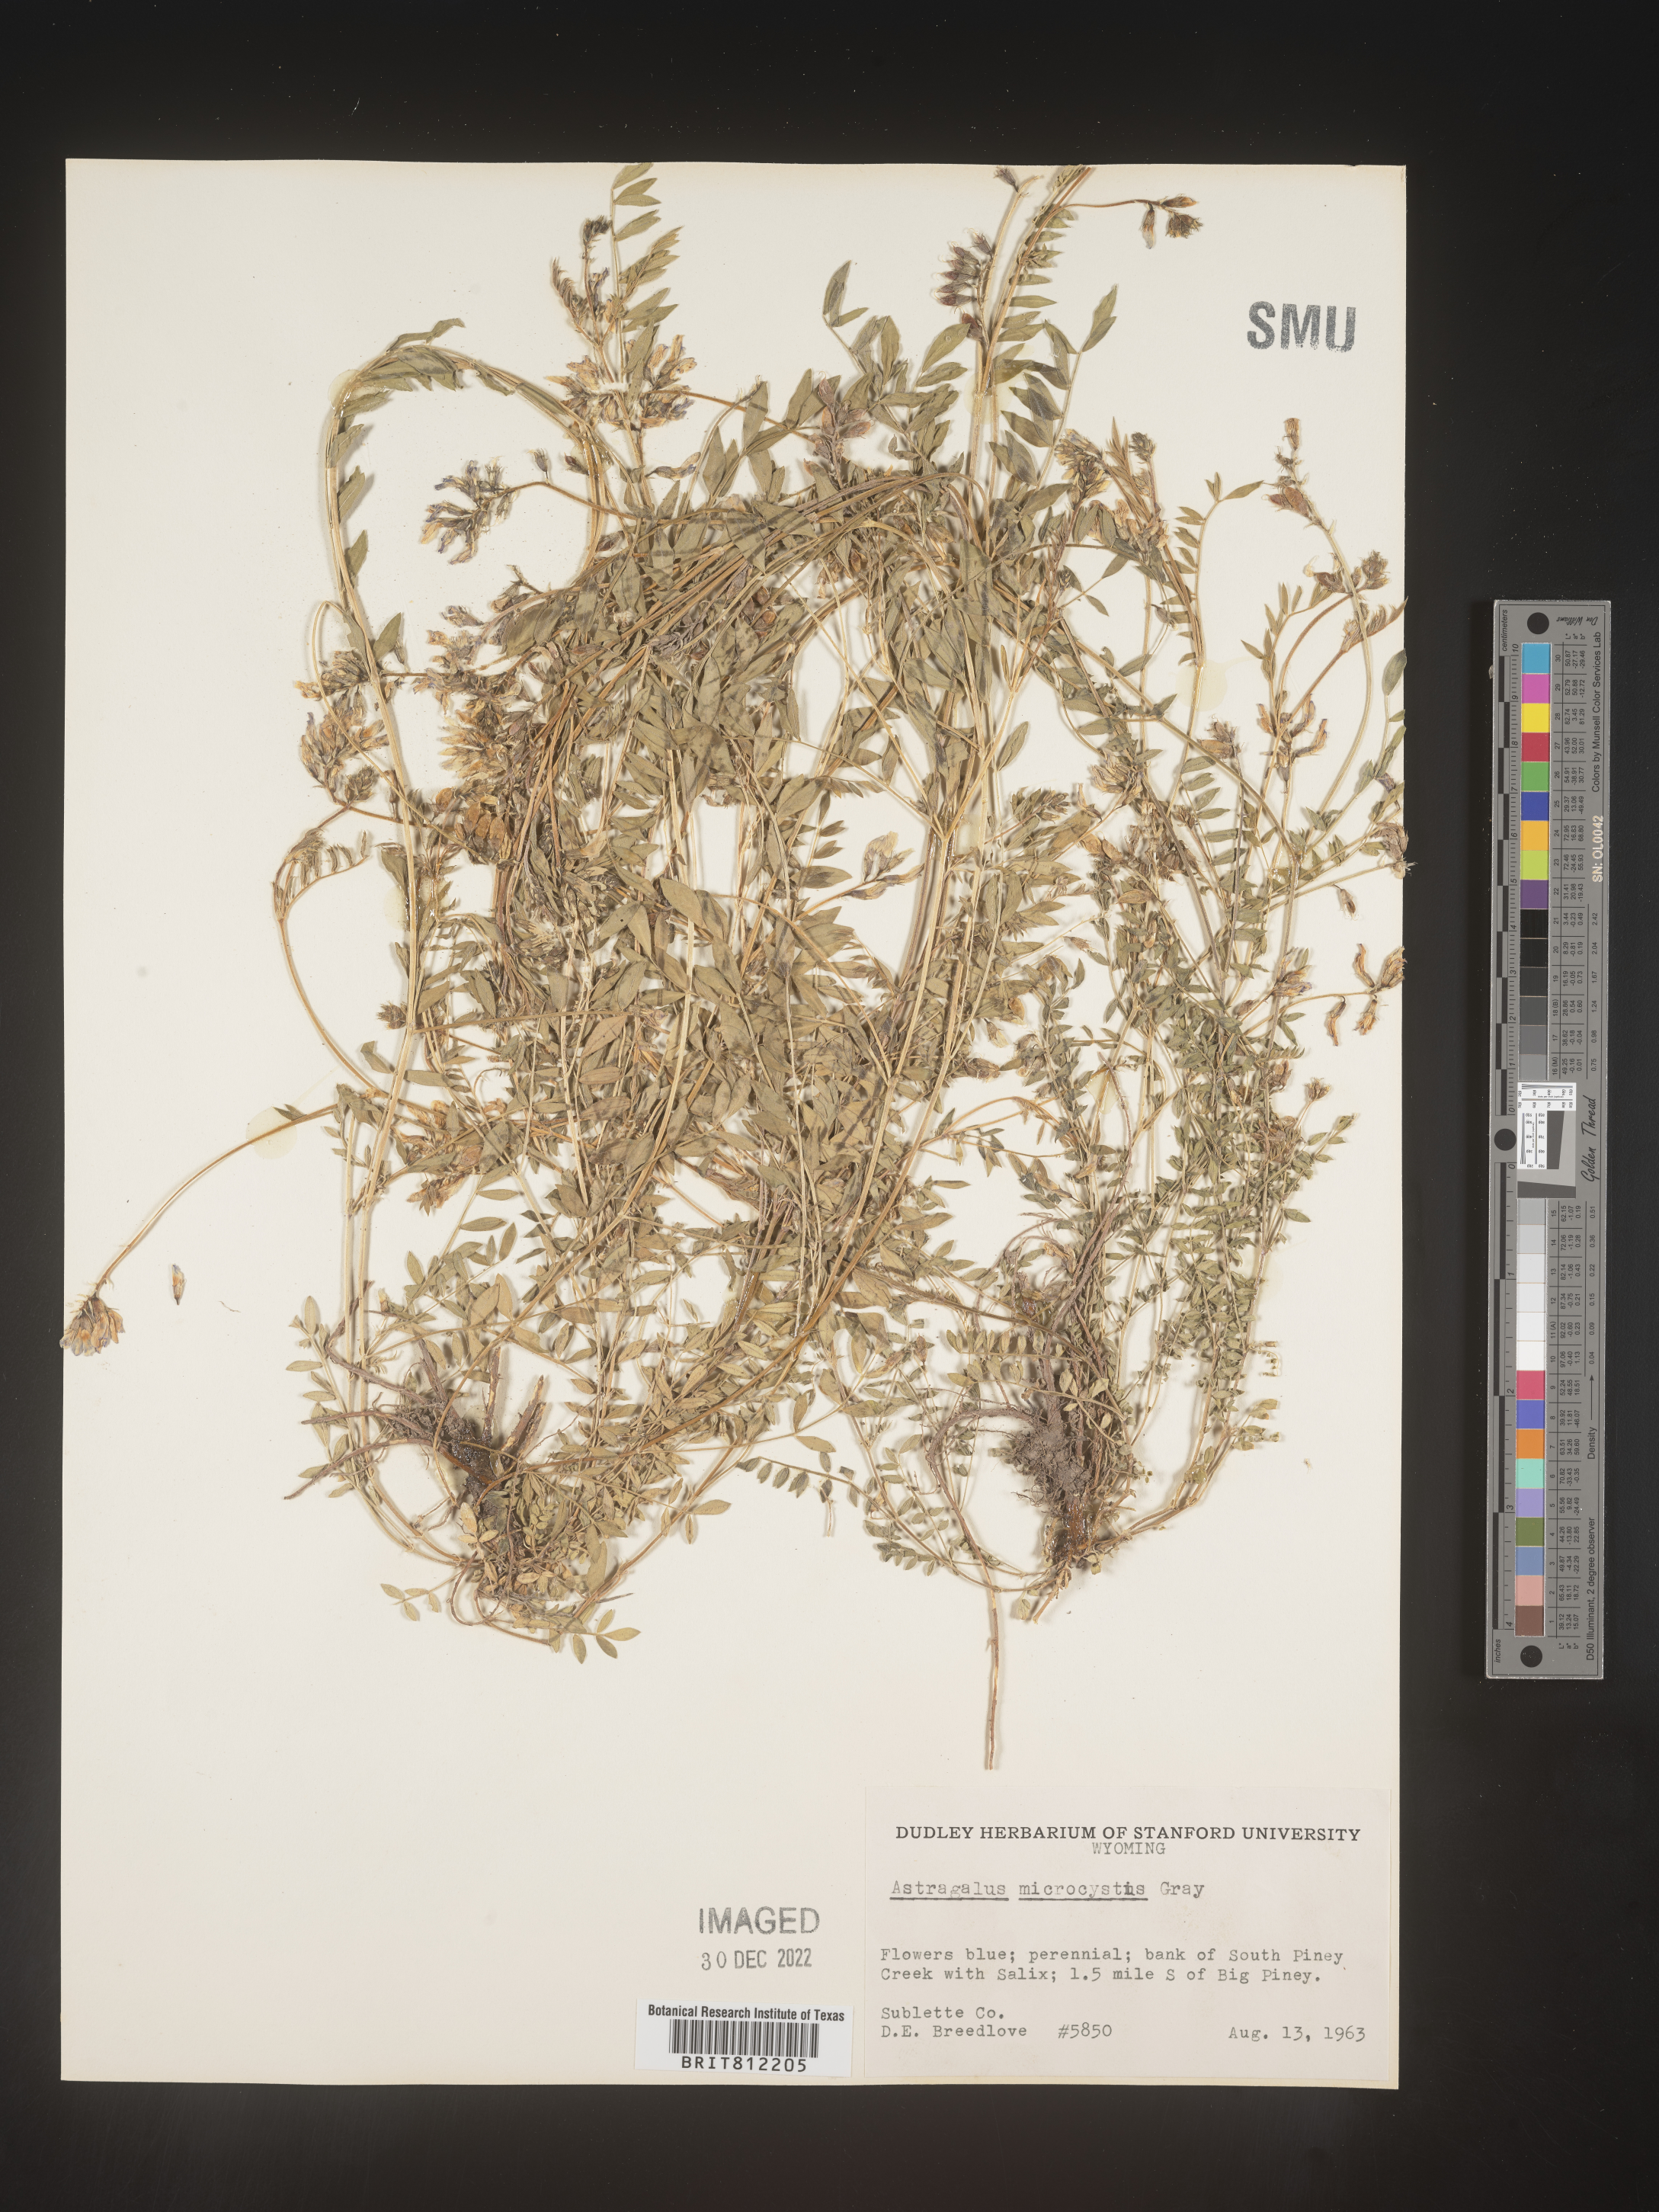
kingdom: Plantae
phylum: Tracheophyta
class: Magnoliopsida
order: Fabales
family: Fabaceae
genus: Astragalus
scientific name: Astragalus
